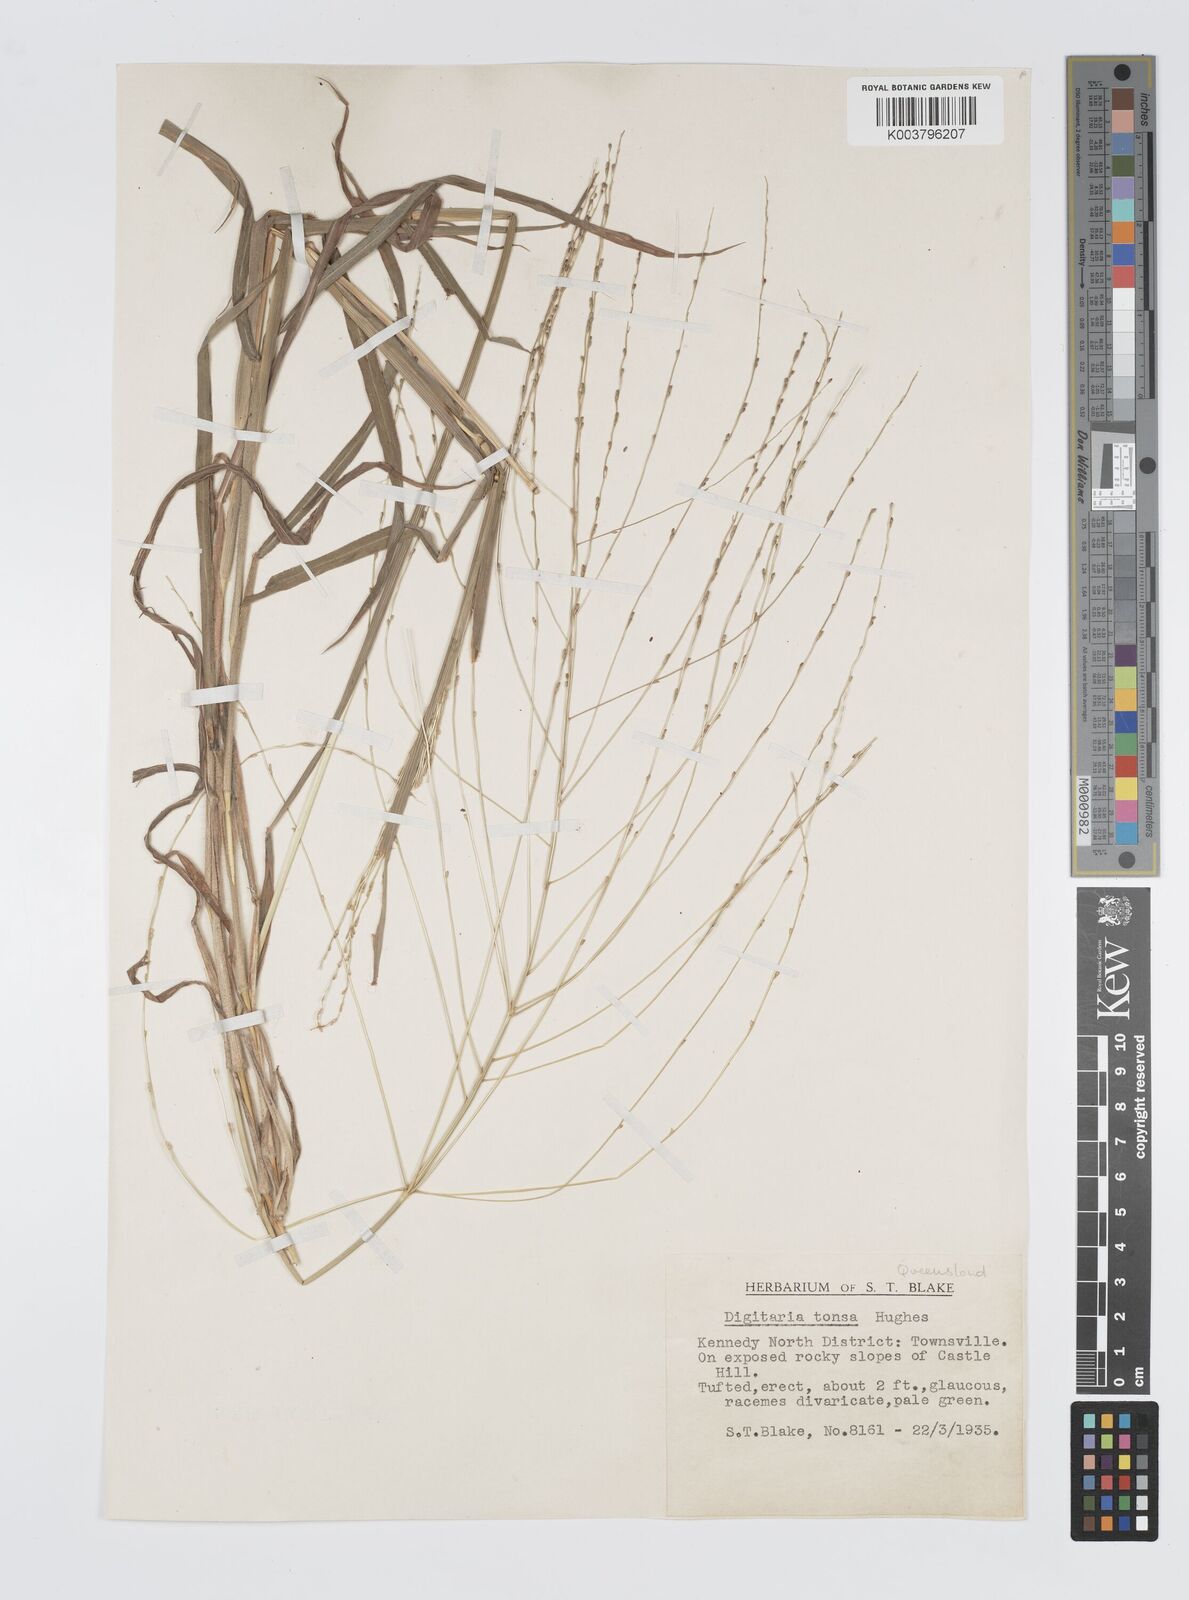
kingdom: Plantae
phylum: Tracheophyta
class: Liliopsida
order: Poales
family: Poaceae
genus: Digitaria
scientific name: Digitaria ammophila
